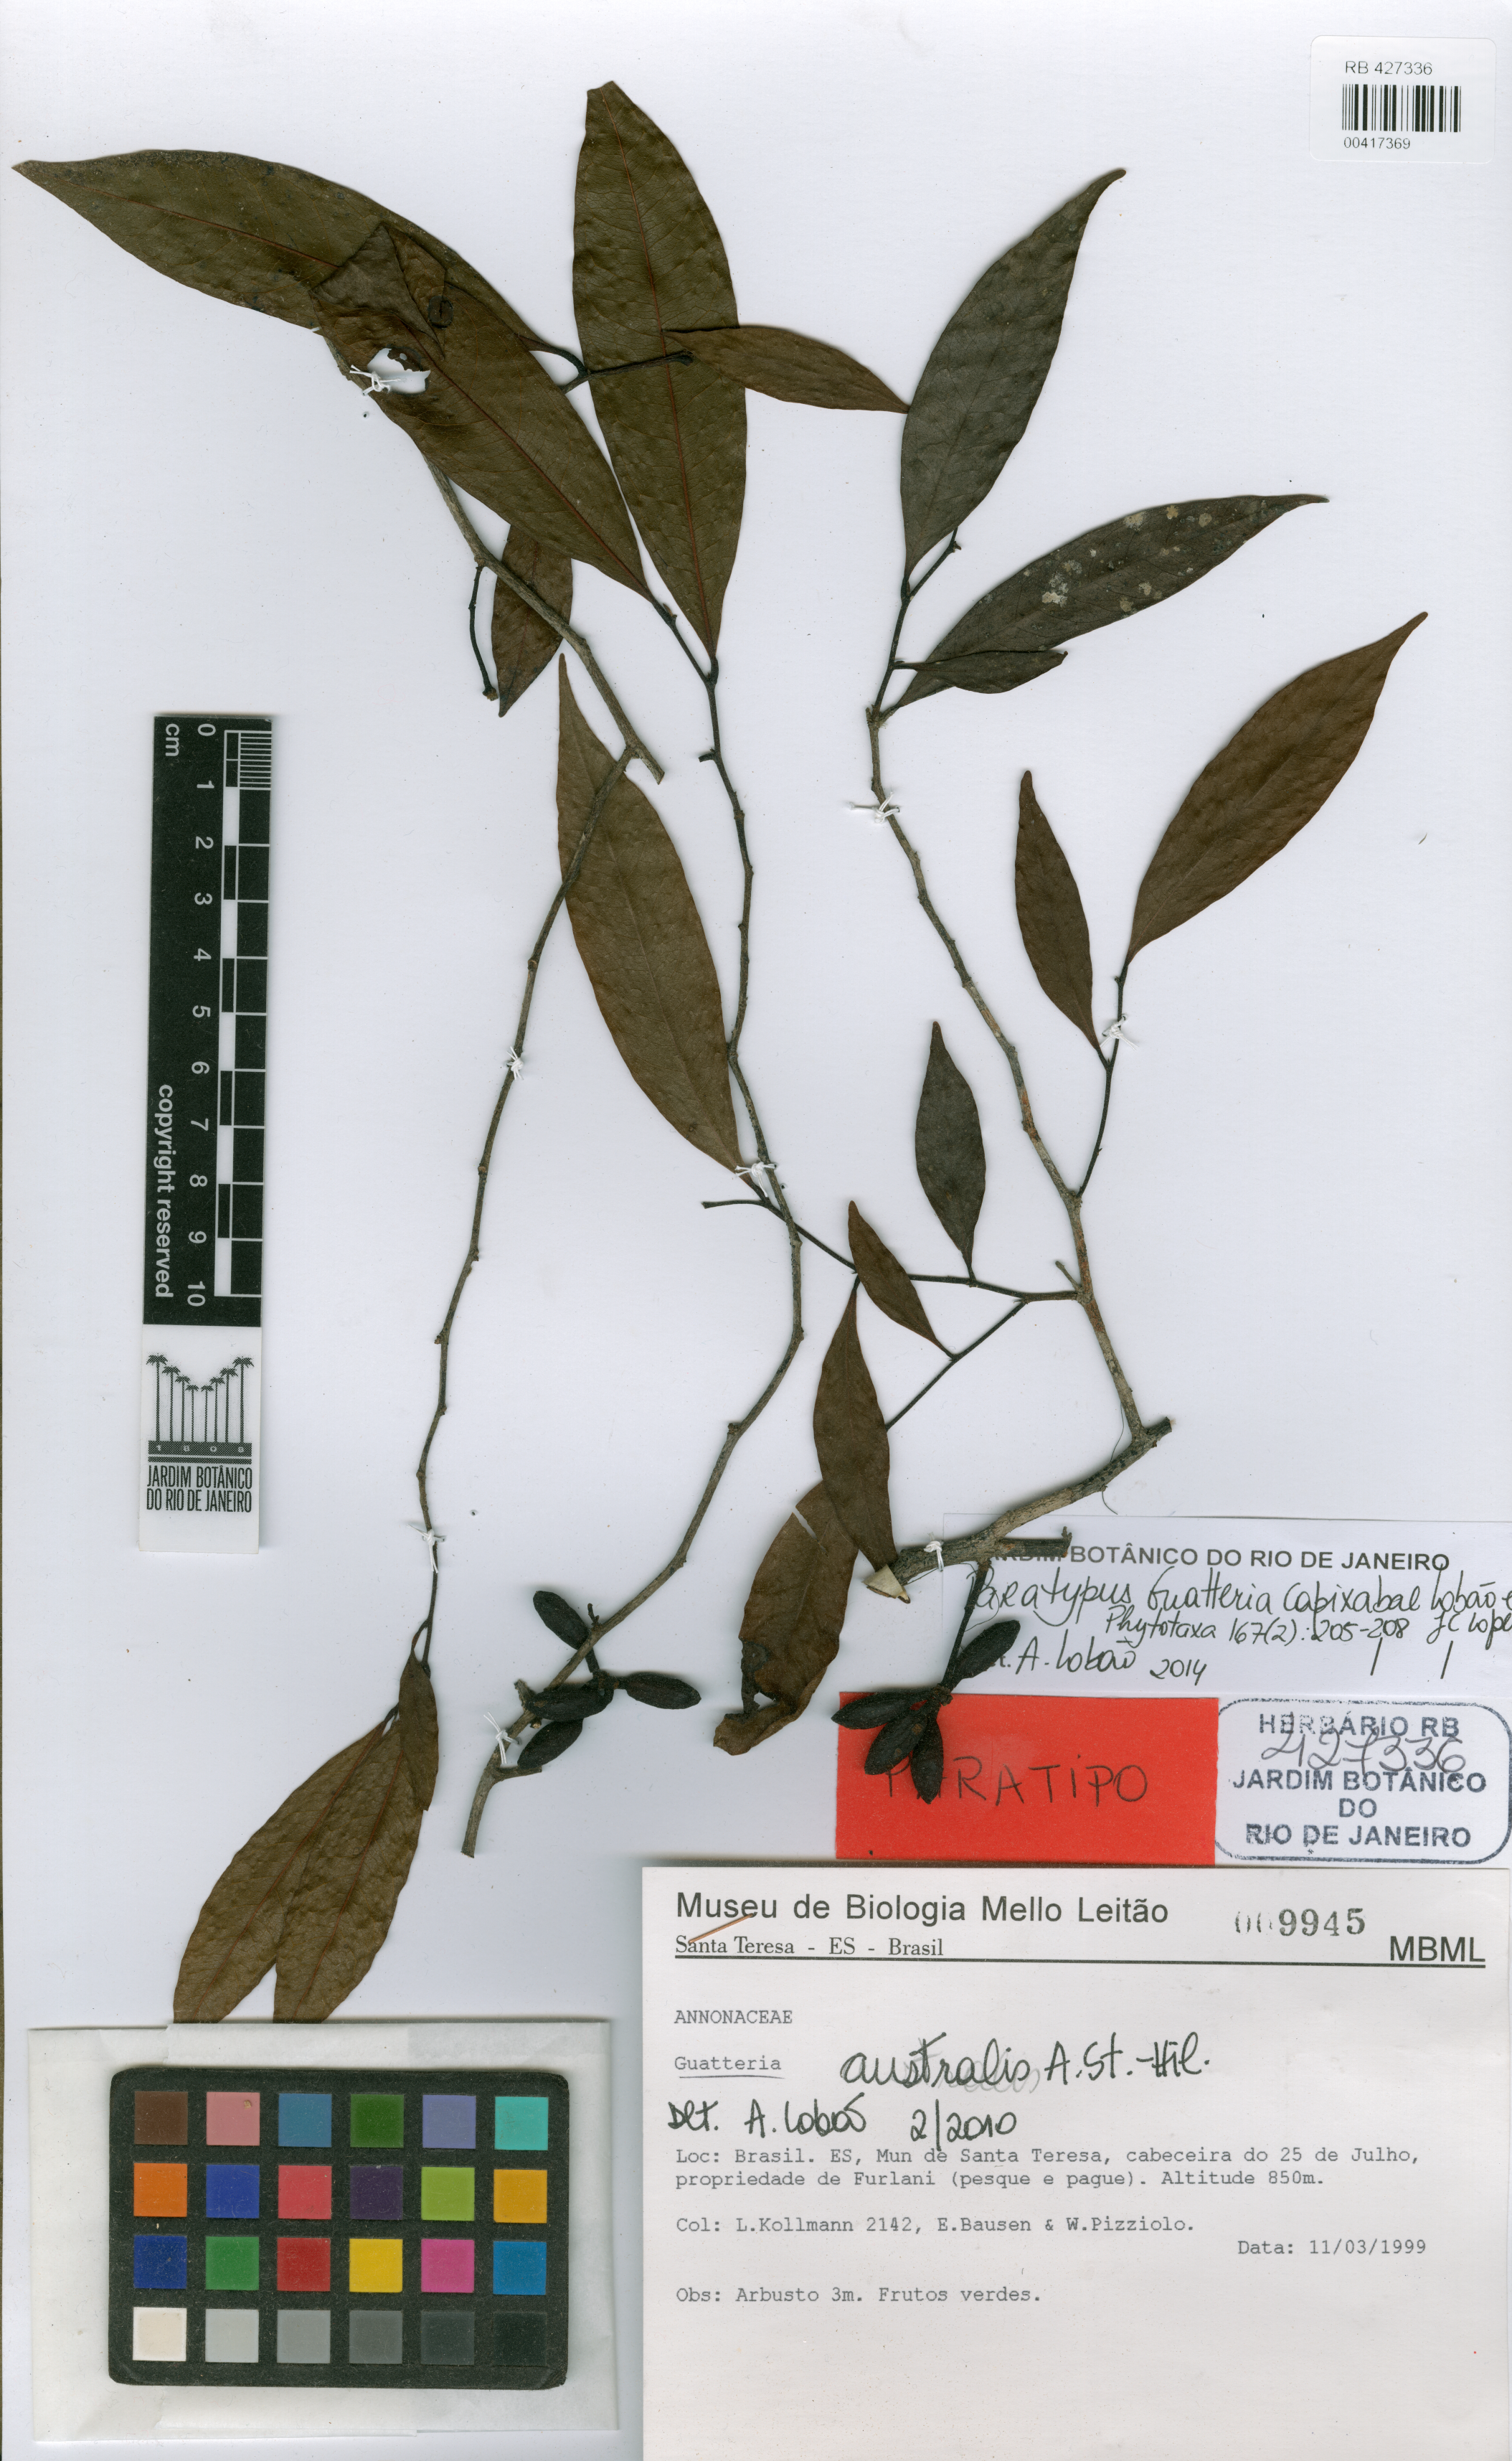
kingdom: Plantae
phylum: Tracheophyta
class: Magnoliopsida
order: Magnoliales
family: Annonaceae
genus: Guatteria
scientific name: Guatteria capixabae
